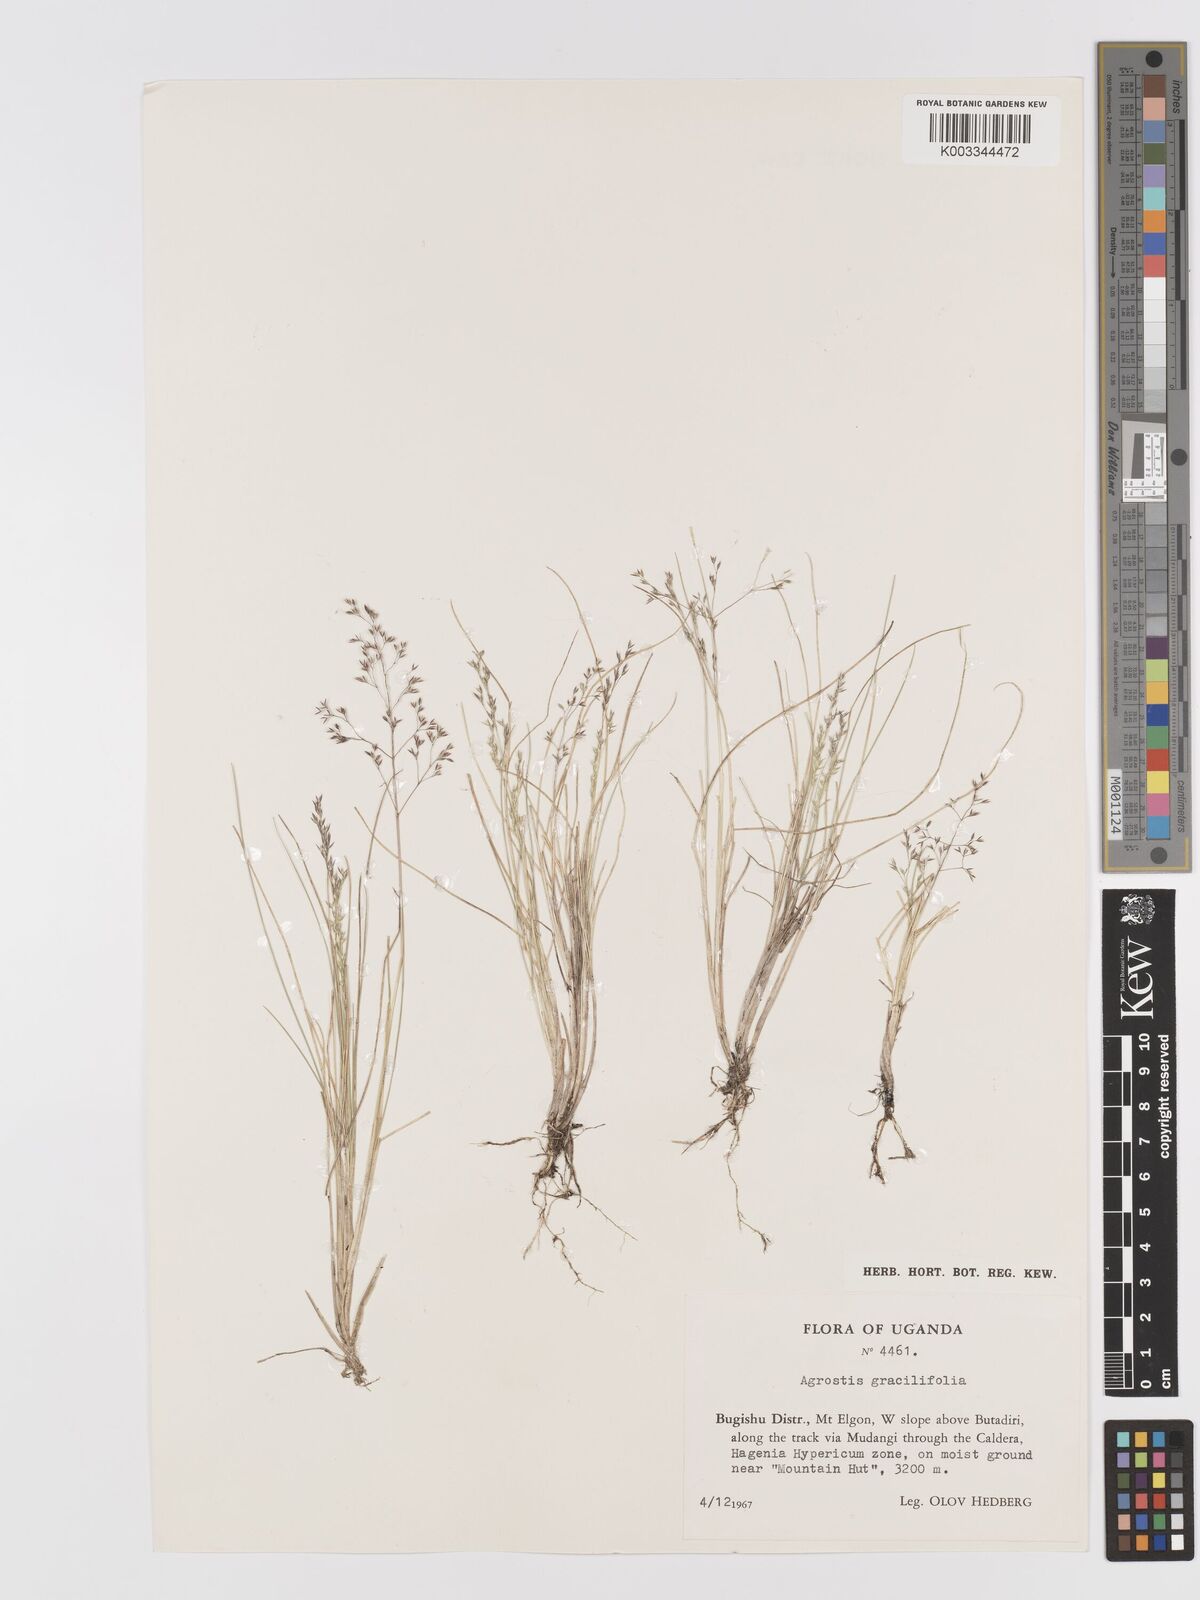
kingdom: Plantae
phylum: Tracheophyta
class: Liliopsida
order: Poales
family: Poaceae
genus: Agrostis
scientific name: Agrostis gracilifolia
